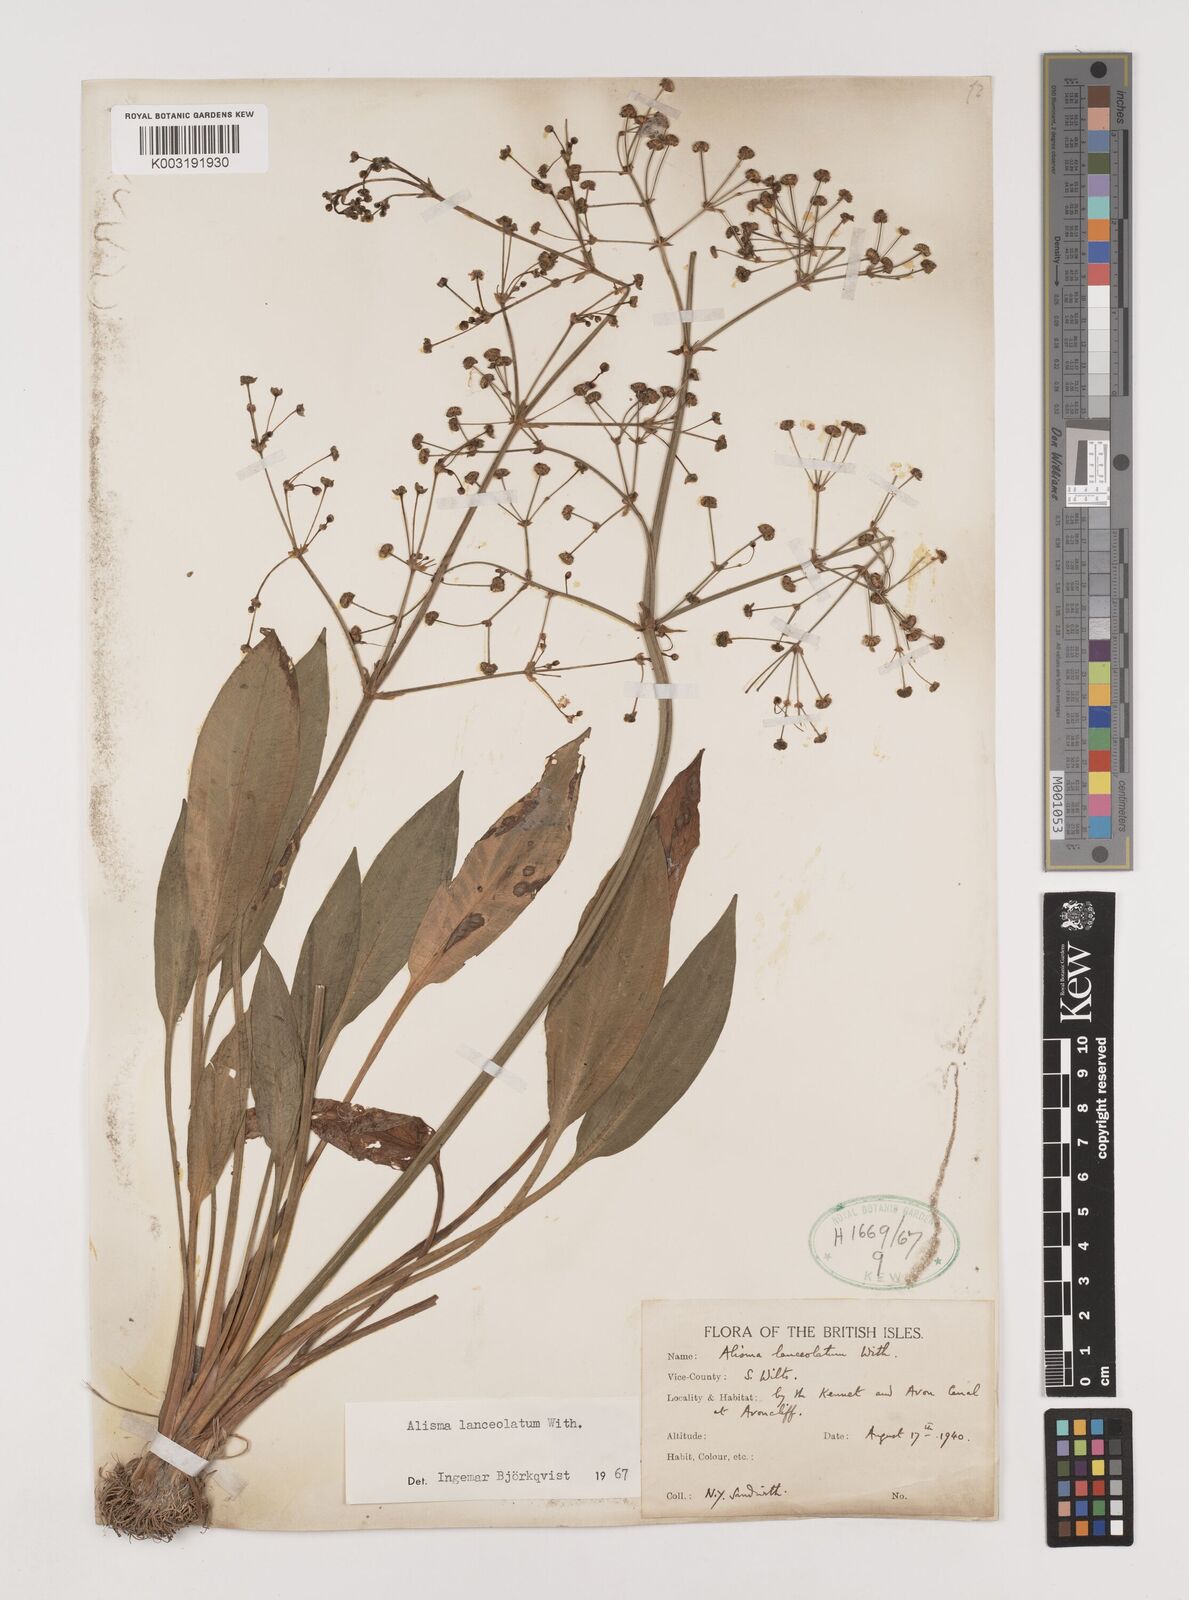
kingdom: Plantae
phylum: Tracheophyta
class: Liliopsida
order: Alismatales
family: Alismataceae
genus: Alisma
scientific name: Alisma lanceolatum
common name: Narrow-leaved water-plantain
